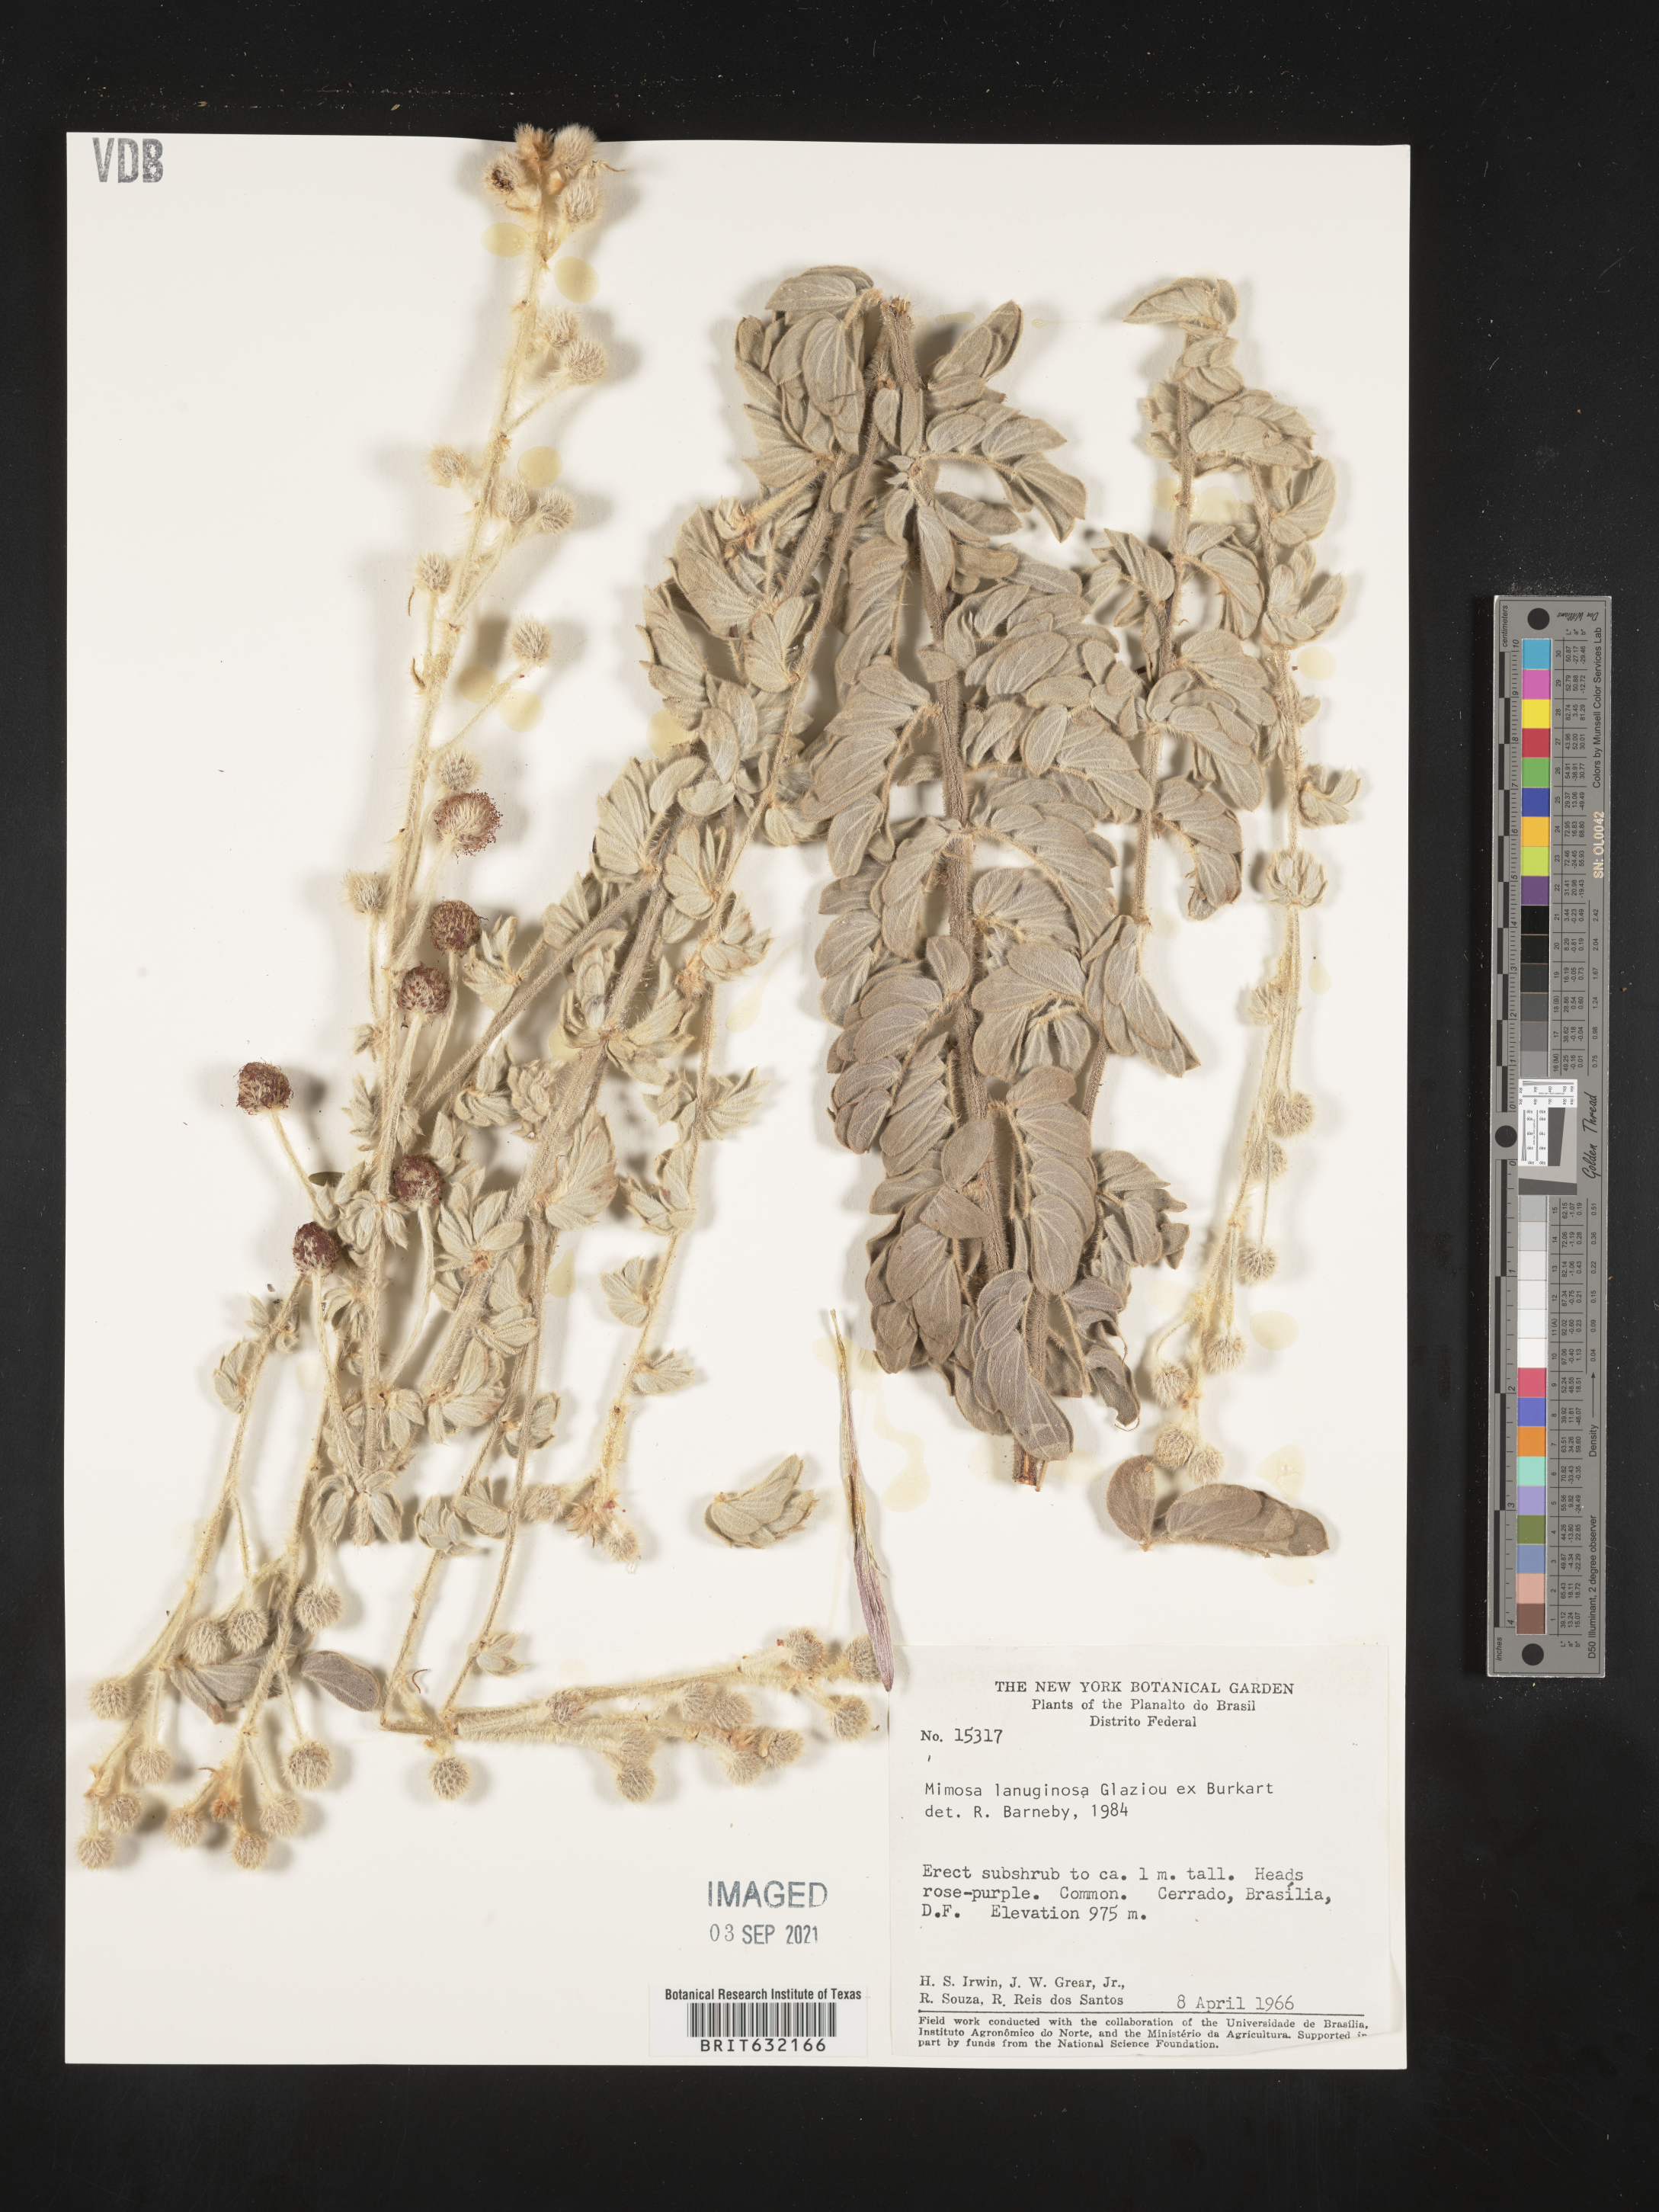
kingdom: Plantae
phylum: Tracheophyta
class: Magnoliopsida
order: Fabales
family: Fabaceae
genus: Mimosa
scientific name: Mimosa
